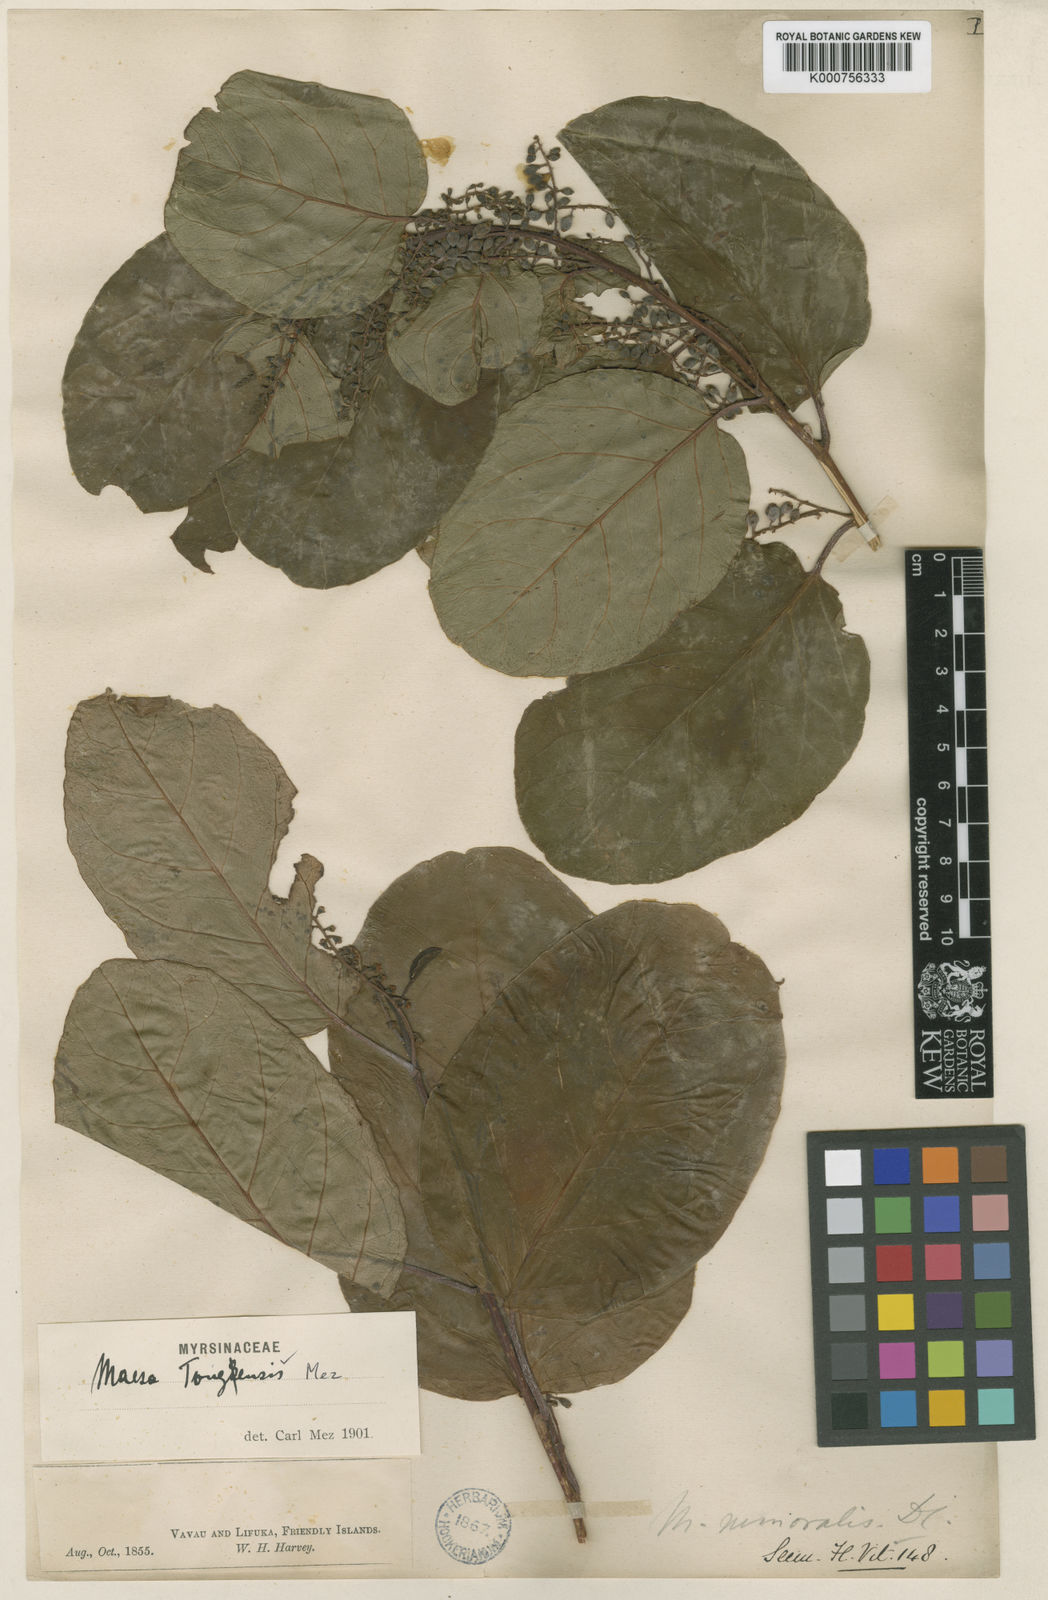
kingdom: Plantae
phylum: Tracheophyta
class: Magnoliopsida
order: Ericales
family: Primulaceae
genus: Maesa
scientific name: Maesa tongensis
